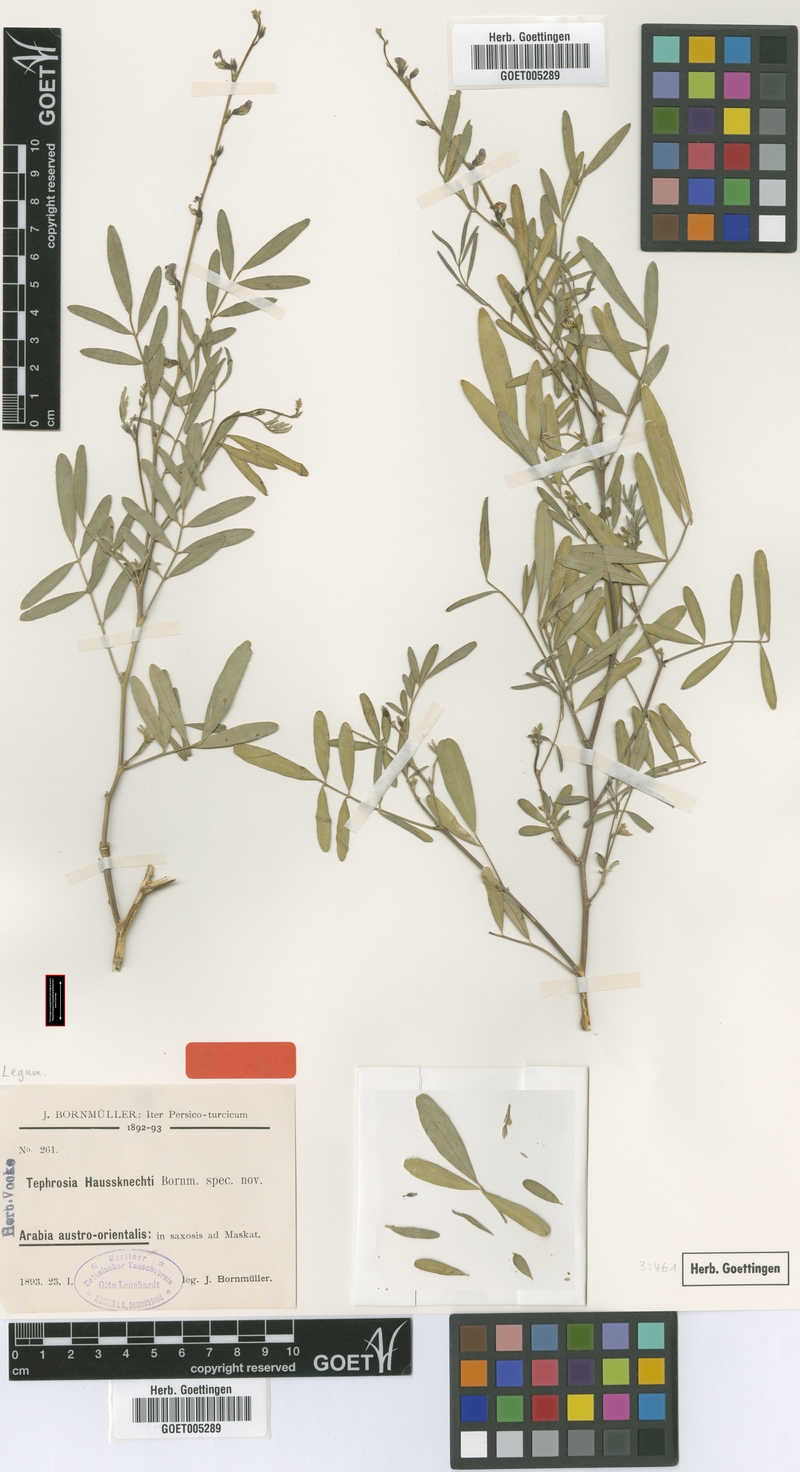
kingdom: Plantae
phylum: Tracheophyta
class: Magnoliopsida
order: Fabales
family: Fabaceae
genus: Tephrosia
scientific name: Tephrosia haussknechtii
